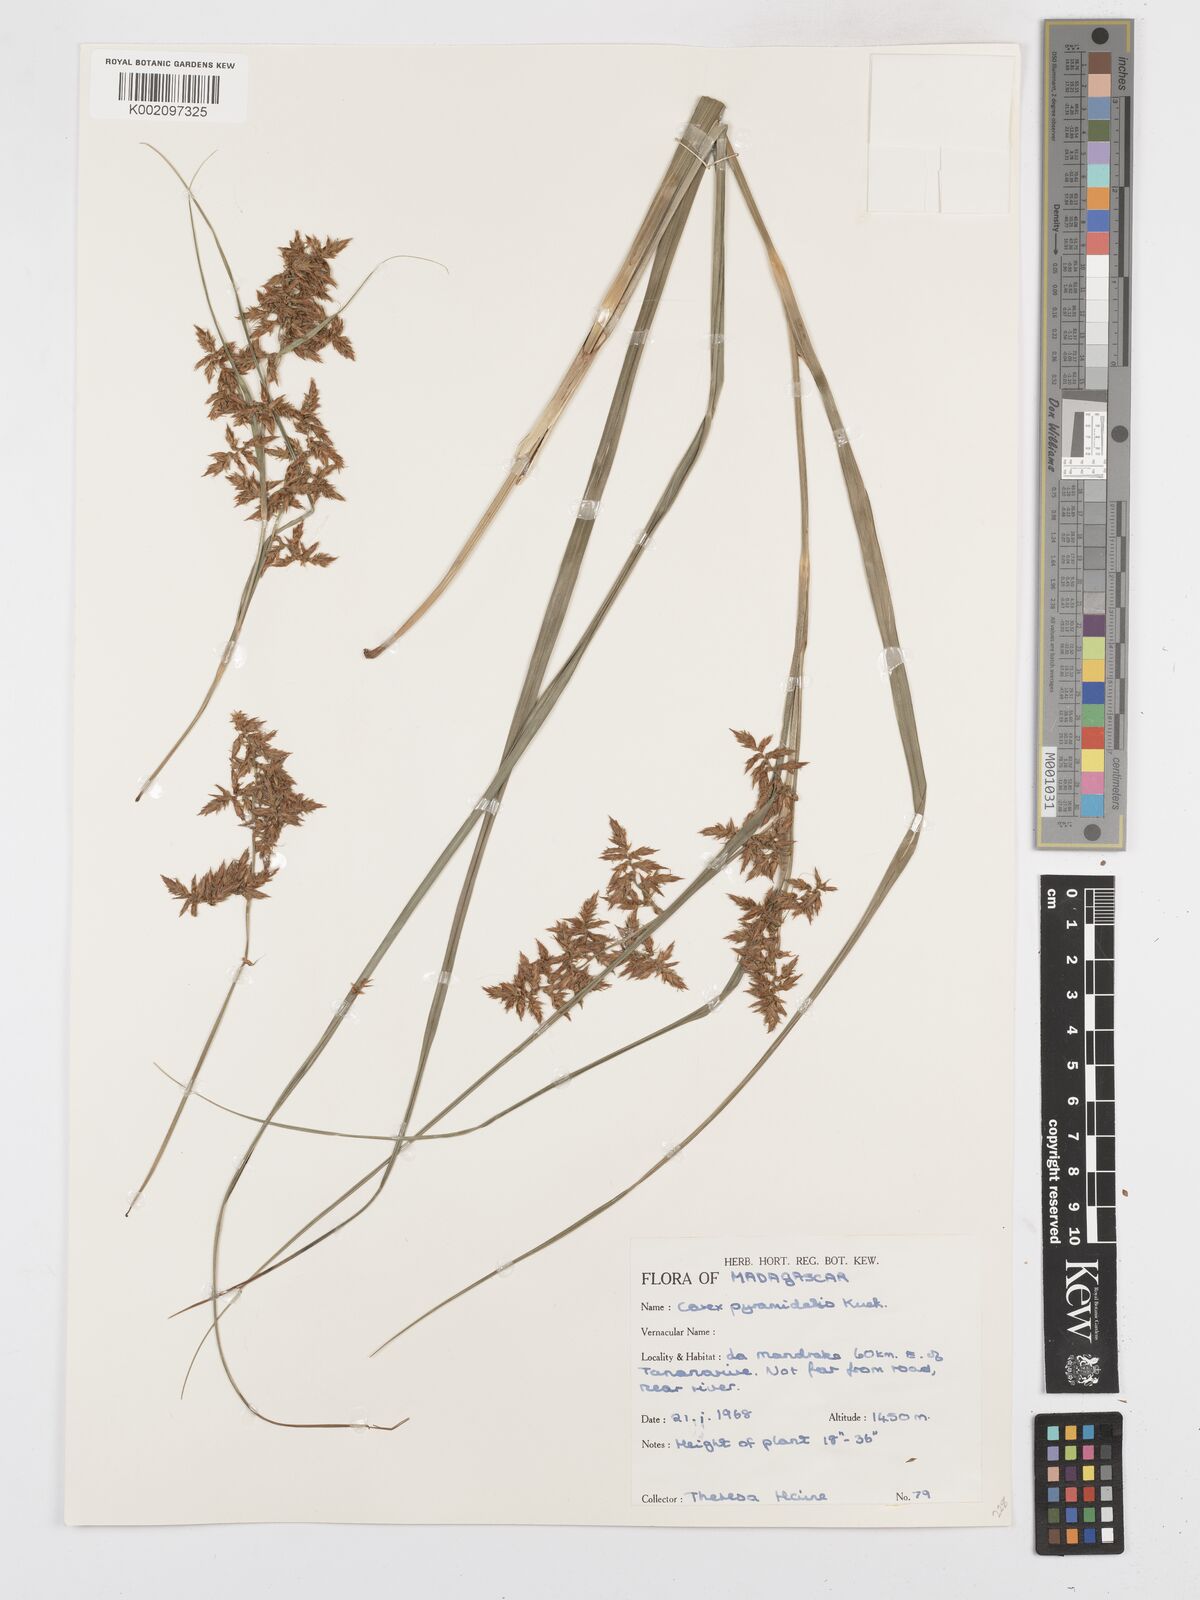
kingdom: Plantae
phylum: Tracheophyta
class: Liliopsida
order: Poales
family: Cyperaceae
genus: Carex
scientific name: Carex pyramidalis
